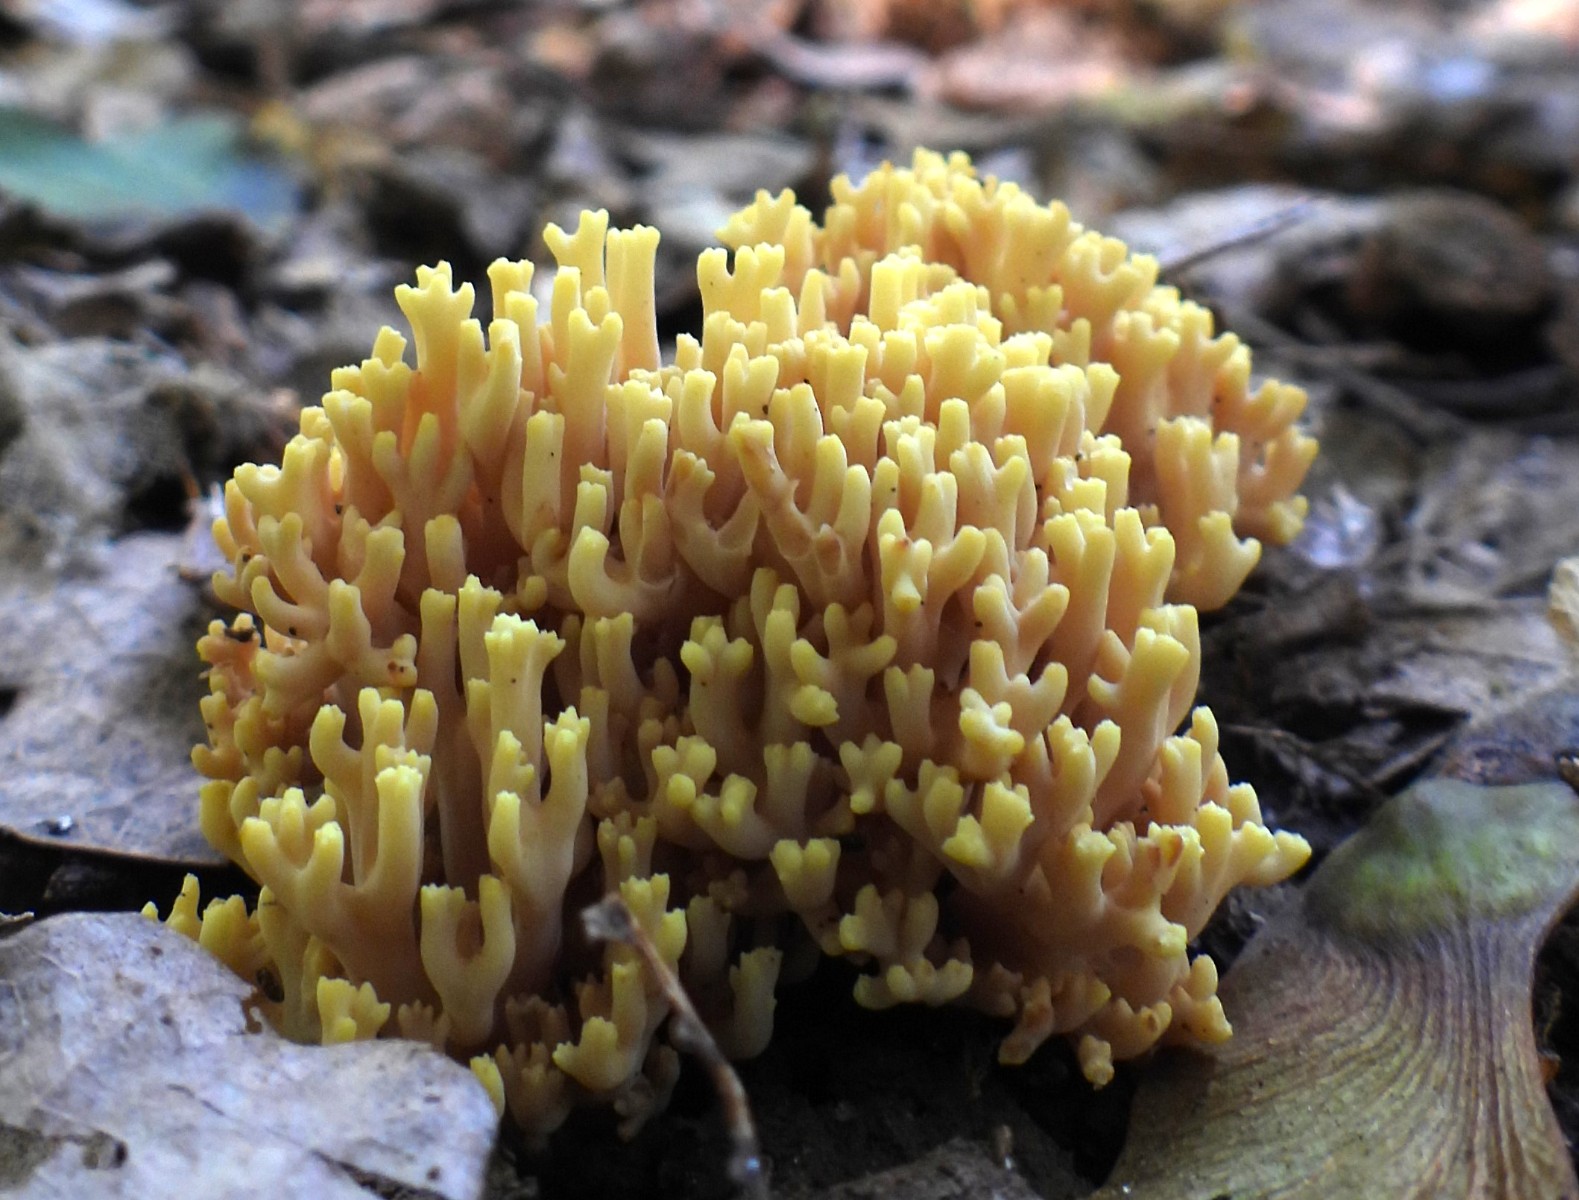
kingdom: Fungi
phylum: Basidiomycota
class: Agaricomycetes
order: Gomphales
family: Gomphaceae
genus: Ramaria
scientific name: Ramaria stricta
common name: rank koralsvamp
